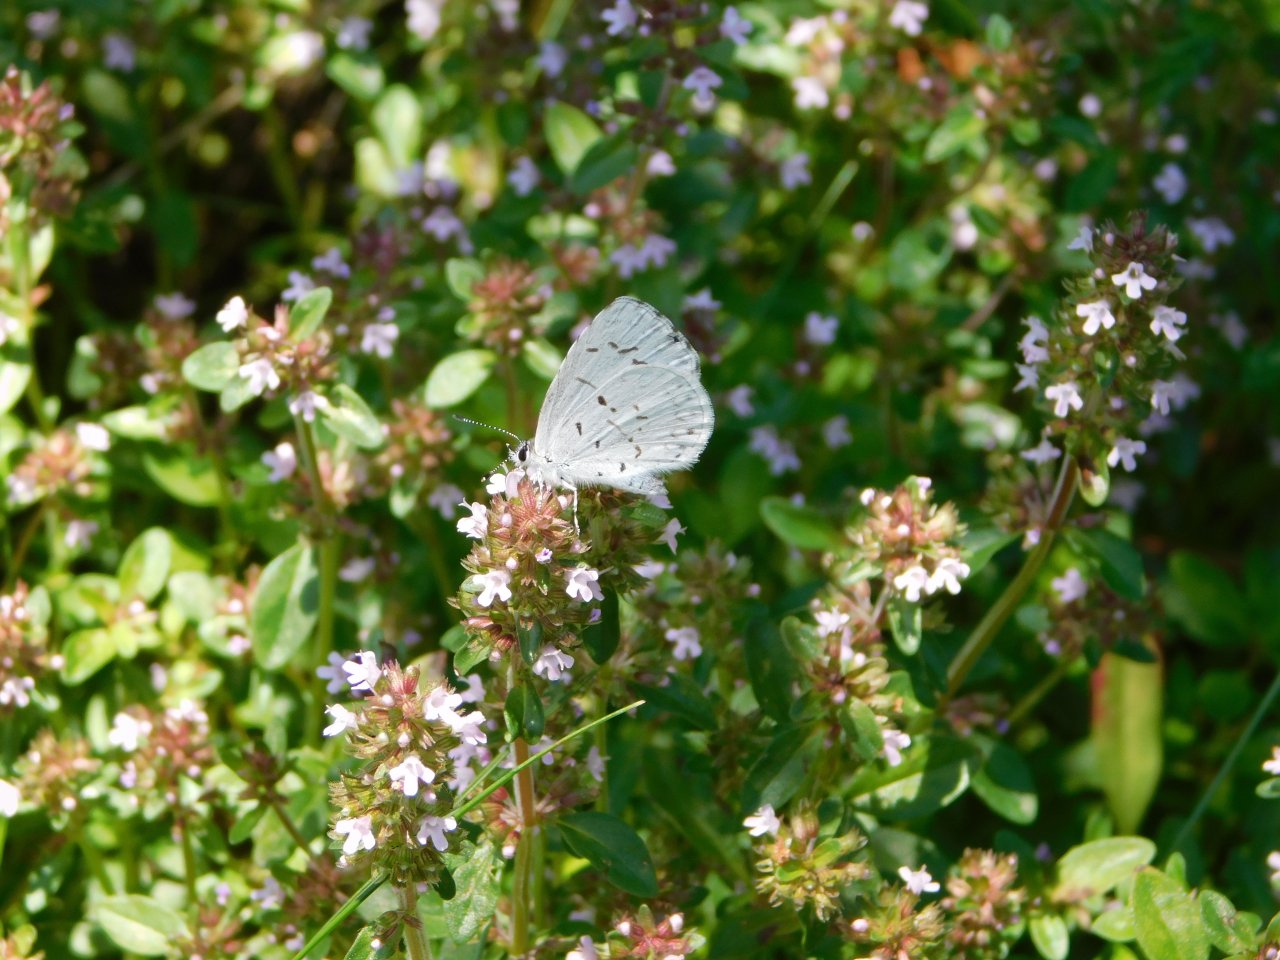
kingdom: Animalia
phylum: Arthropoda
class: Insecta
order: Lepidoptera
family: Lycaenidae
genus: Cyaniris
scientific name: Cyaniris neglecta
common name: Summer Azure
